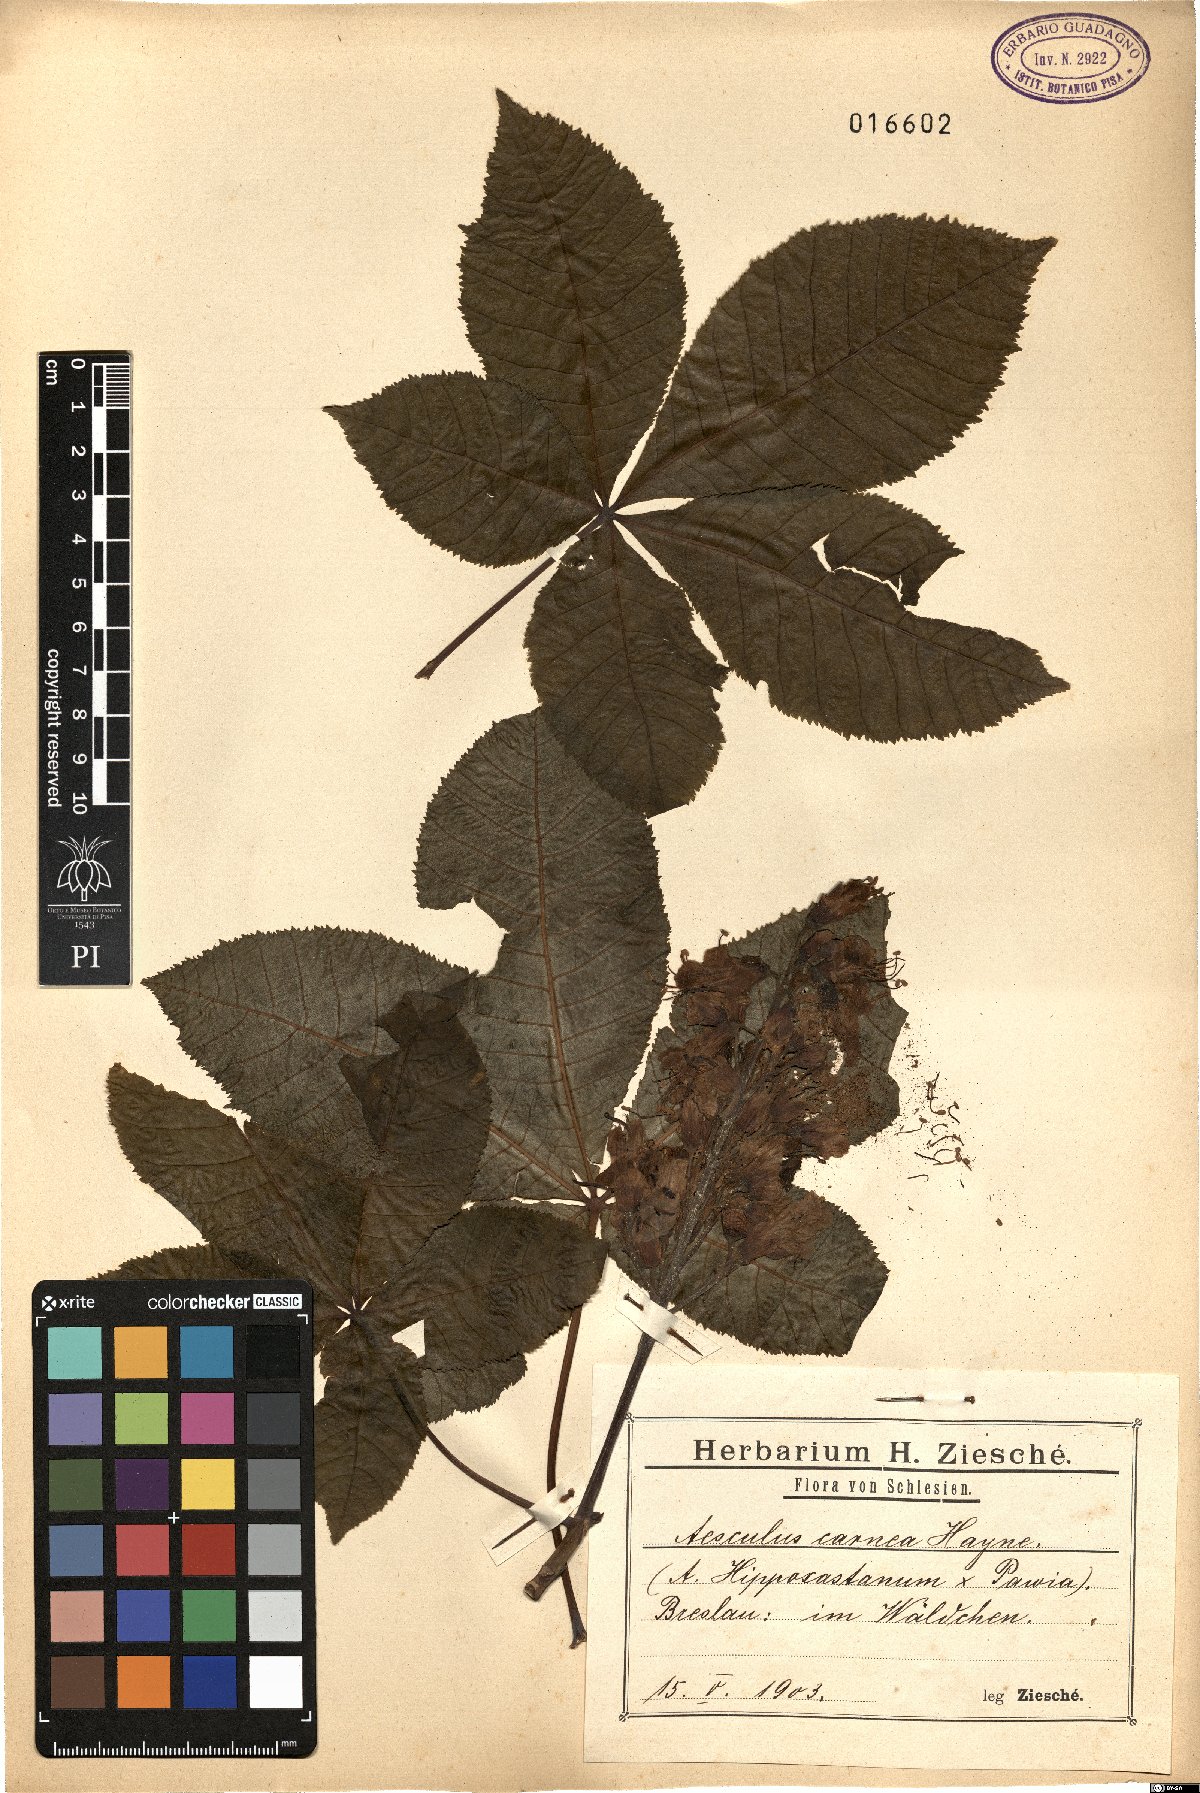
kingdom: Plantae
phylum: Tracheophyta
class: Magnoliopsida
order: Sapindales
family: Hippocastanaceae
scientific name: Hippocastanaceae
